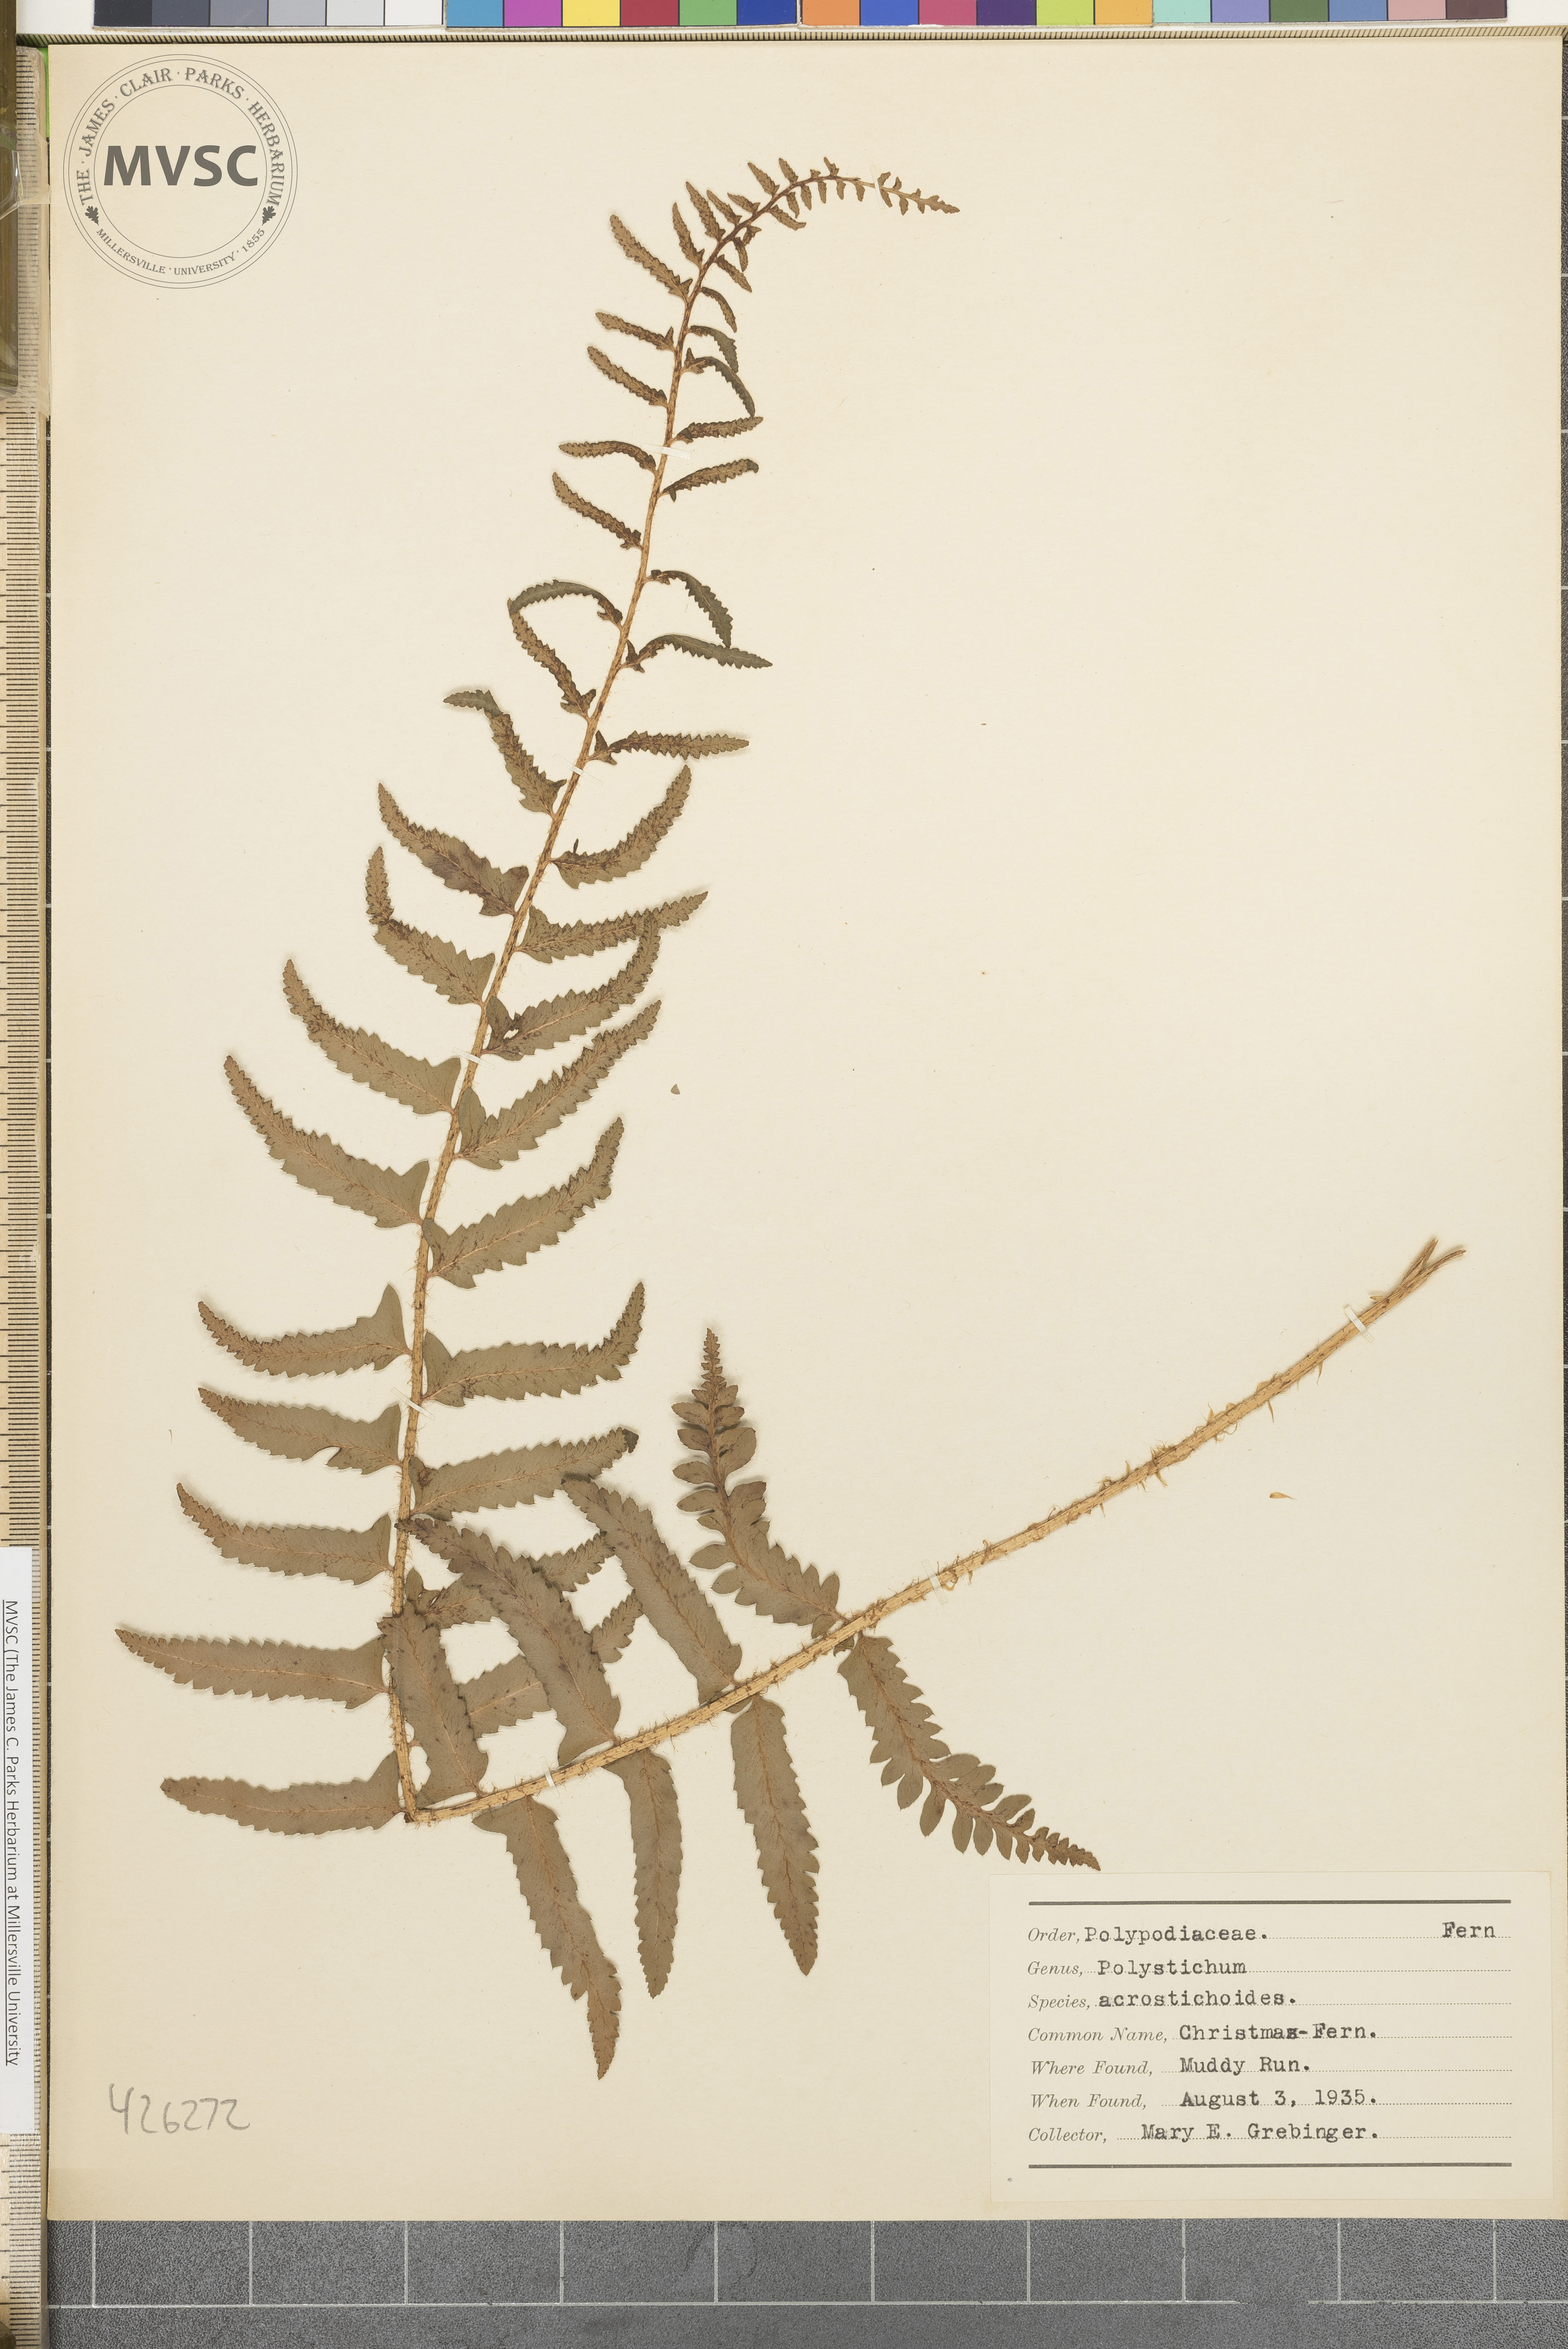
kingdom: Plantae
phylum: Tracheophyta
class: Polypodiopsida
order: Polypodiales
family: Dryopteridaceae
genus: Polystichum
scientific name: Polystichum acrostichoides
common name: Christmas fern
